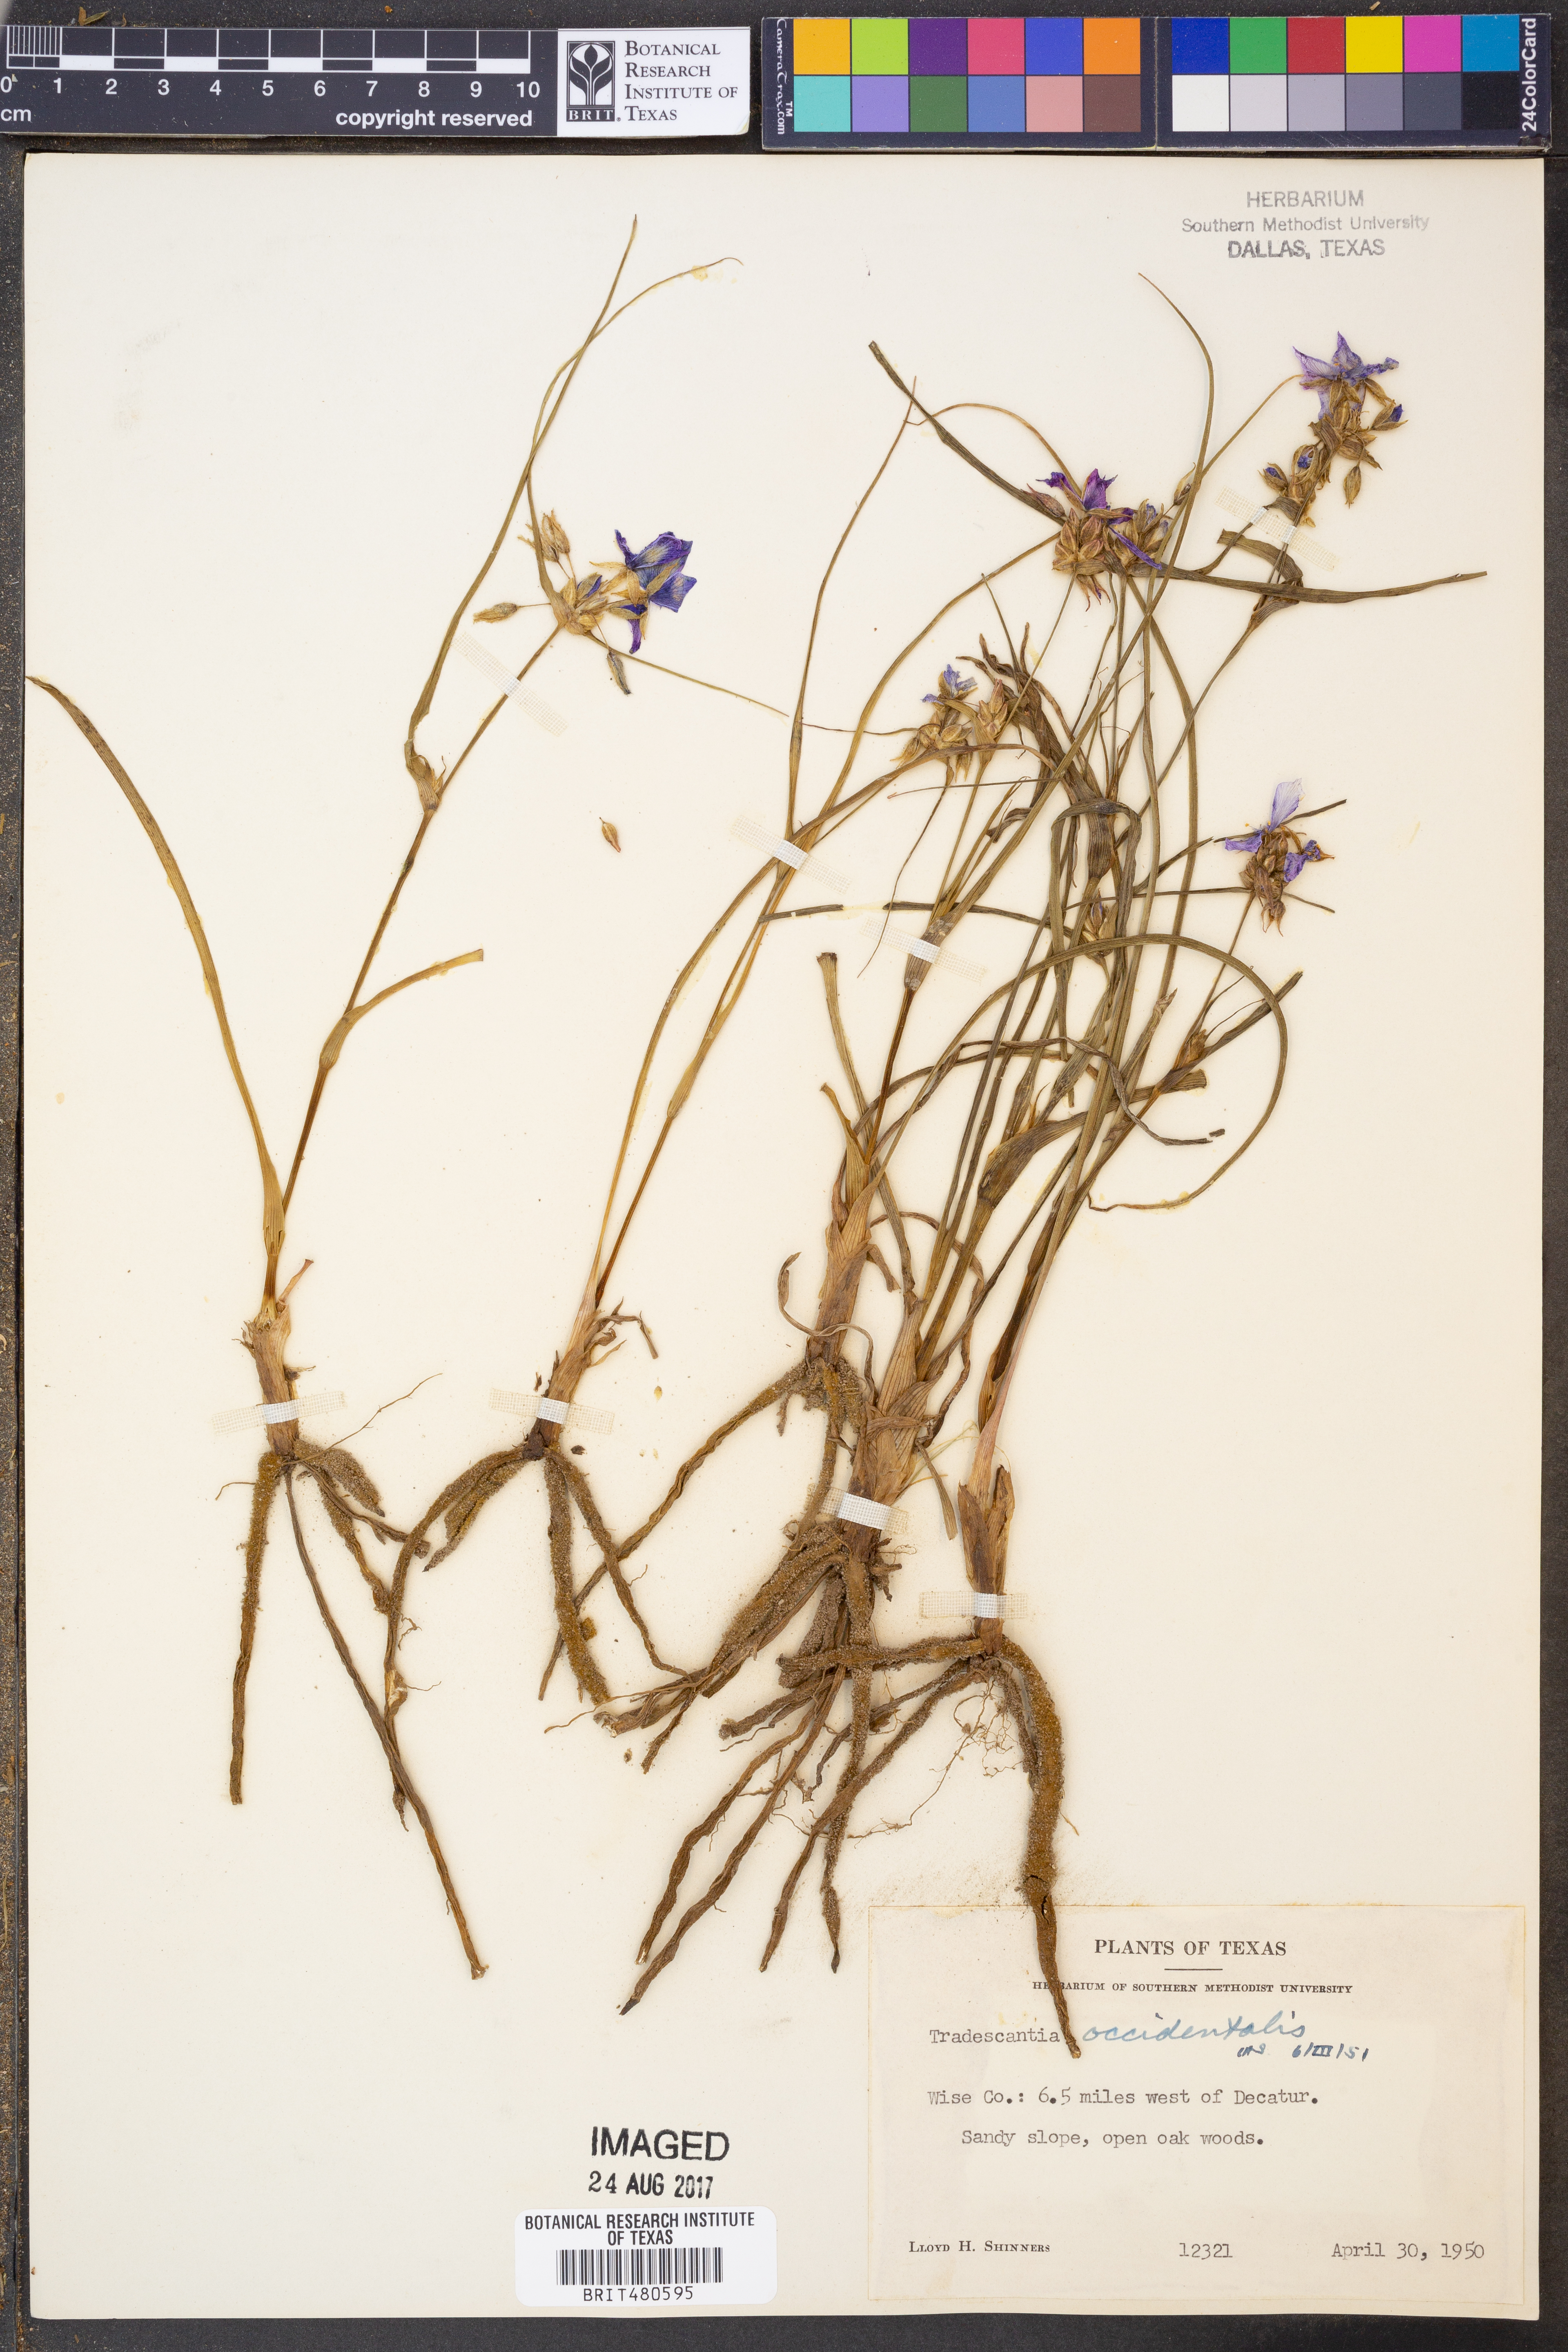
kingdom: Plantae
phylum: Tracheophyta
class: Liliopsida
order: Commelinales
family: Commelinaceae
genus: Tradescantia
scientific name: Tradescantia occidentalis
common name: Prairie spiderwort
